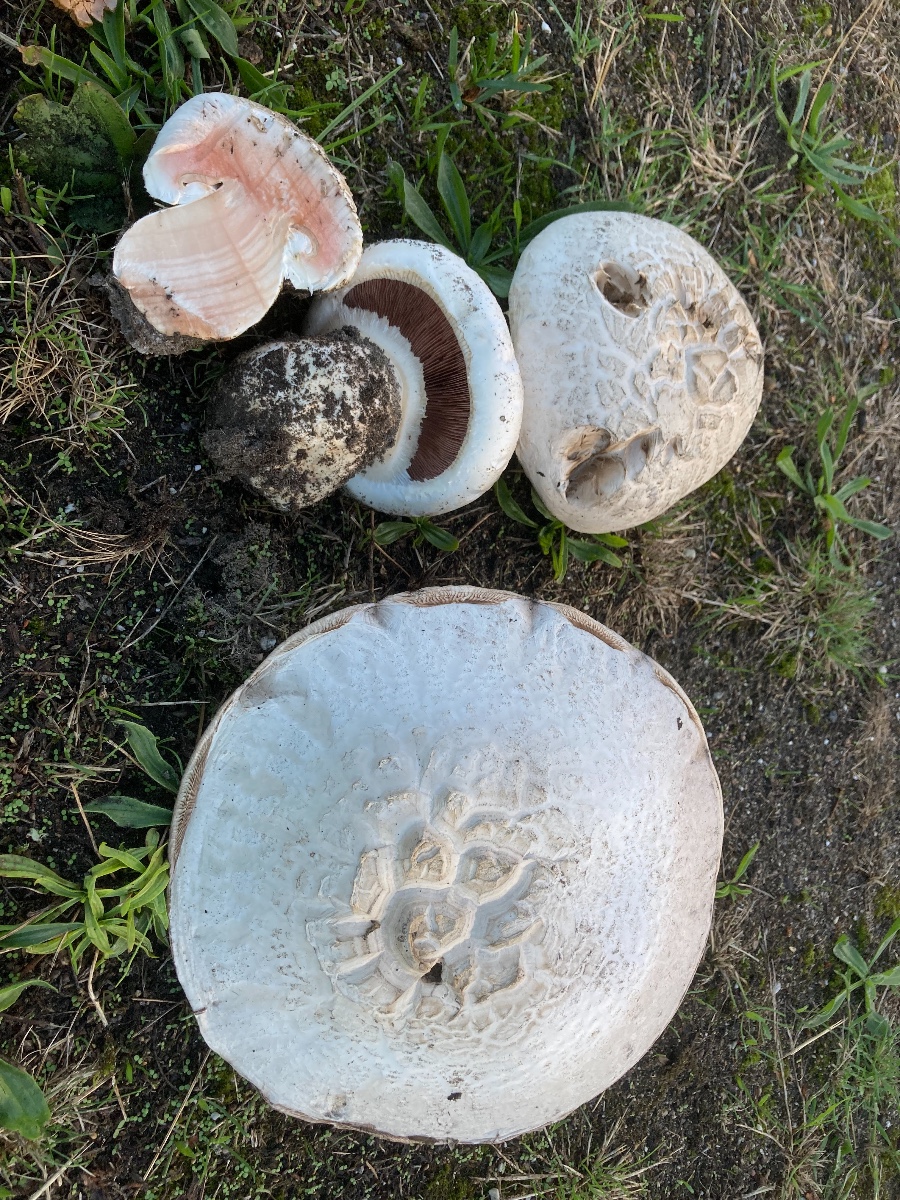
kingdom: Fungi
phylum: Basidiomycota
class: Agaricomycetes
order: Agaricales
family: Agaricaceae
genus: Agaricus
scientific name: Agaricus bernardii
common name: strandengs-champignon
